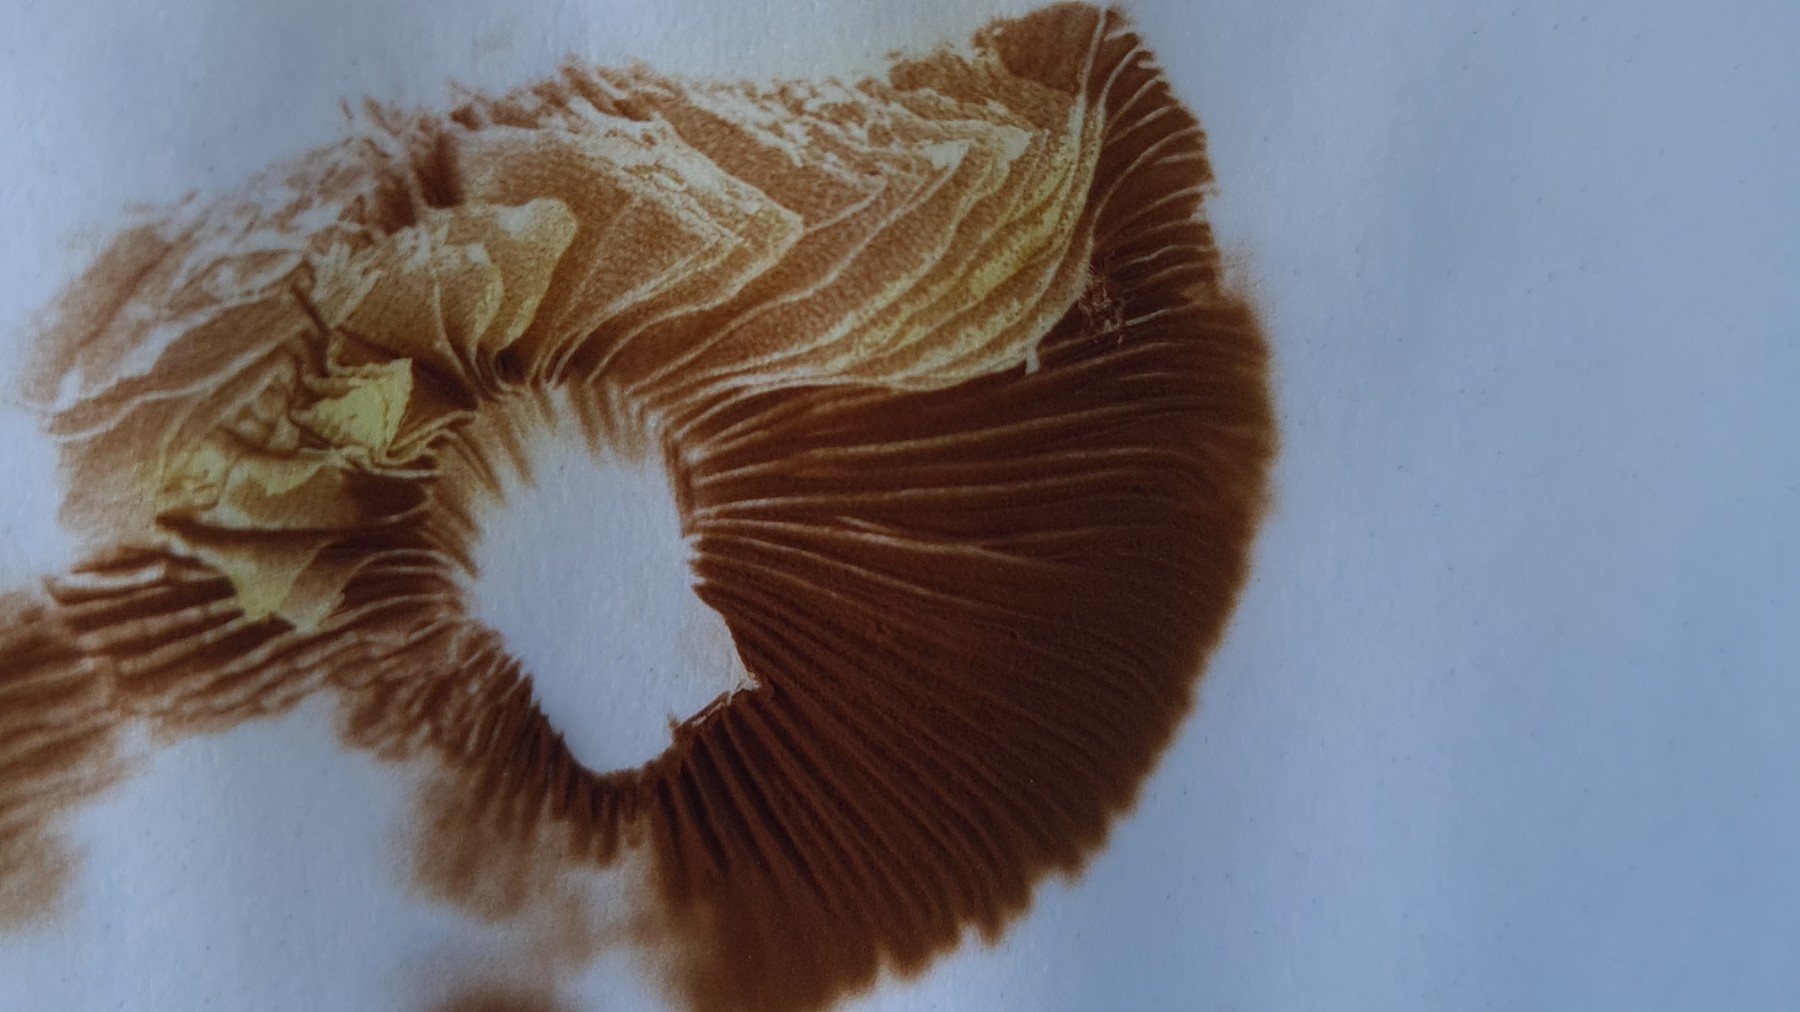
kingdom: Fungi
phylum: Basidiomycota
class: Agaricomycetes
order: Agaricales
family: Strophariaceae
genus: Agrocybe
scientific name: Agrocybe dura
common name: fastkødet agerhat
